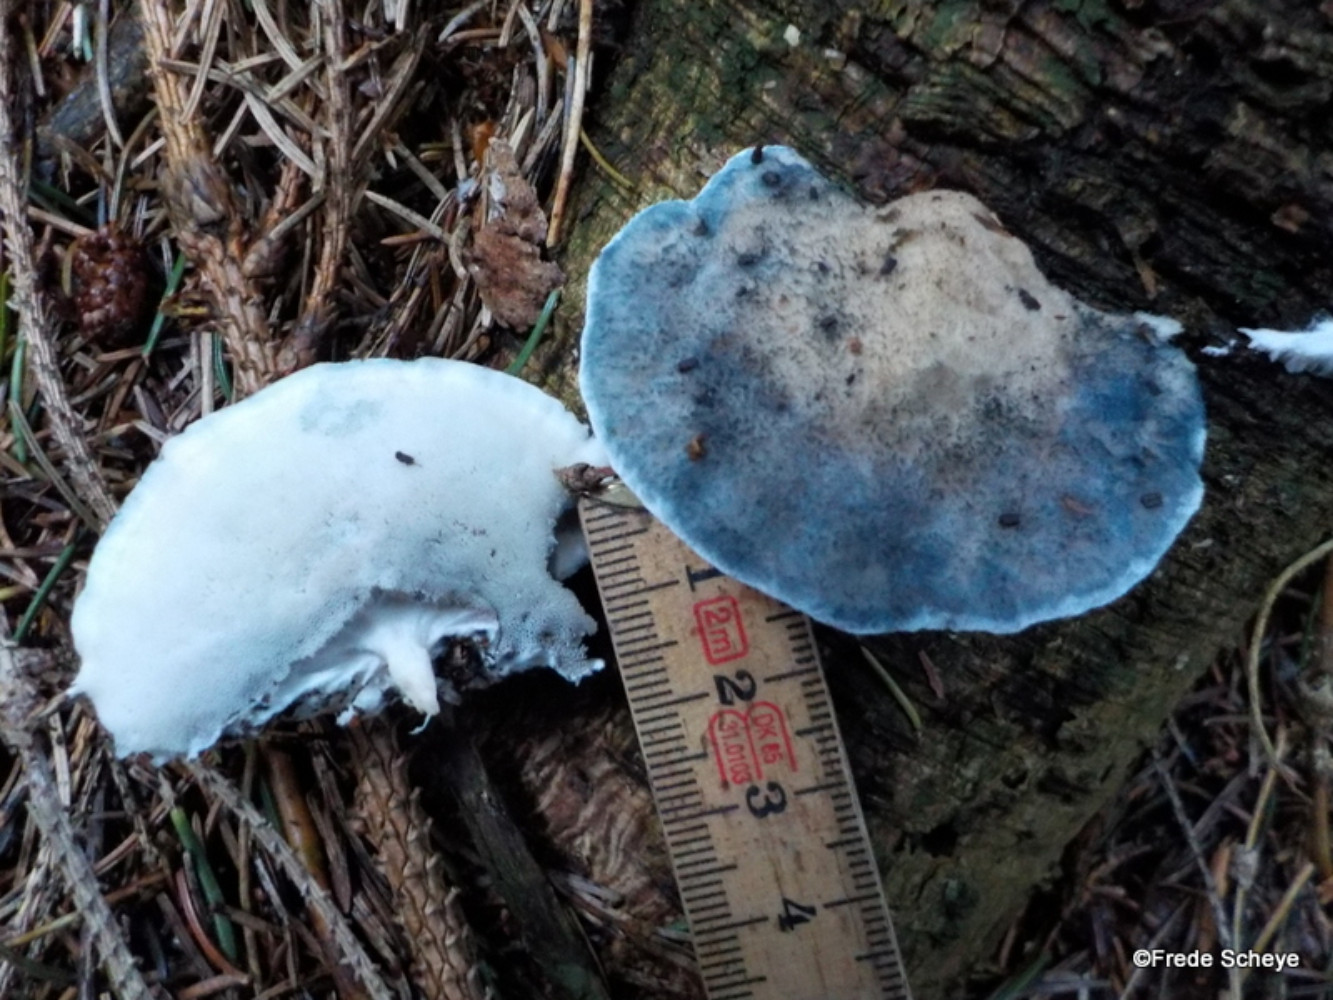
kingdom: Fungi
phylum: Basidiomycota
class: Agaricomycetes
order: Polyporales
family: Polyporaceae
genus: Cyanosporus
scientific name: Cyanosporus caesius
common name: blålig kødporesvamp
